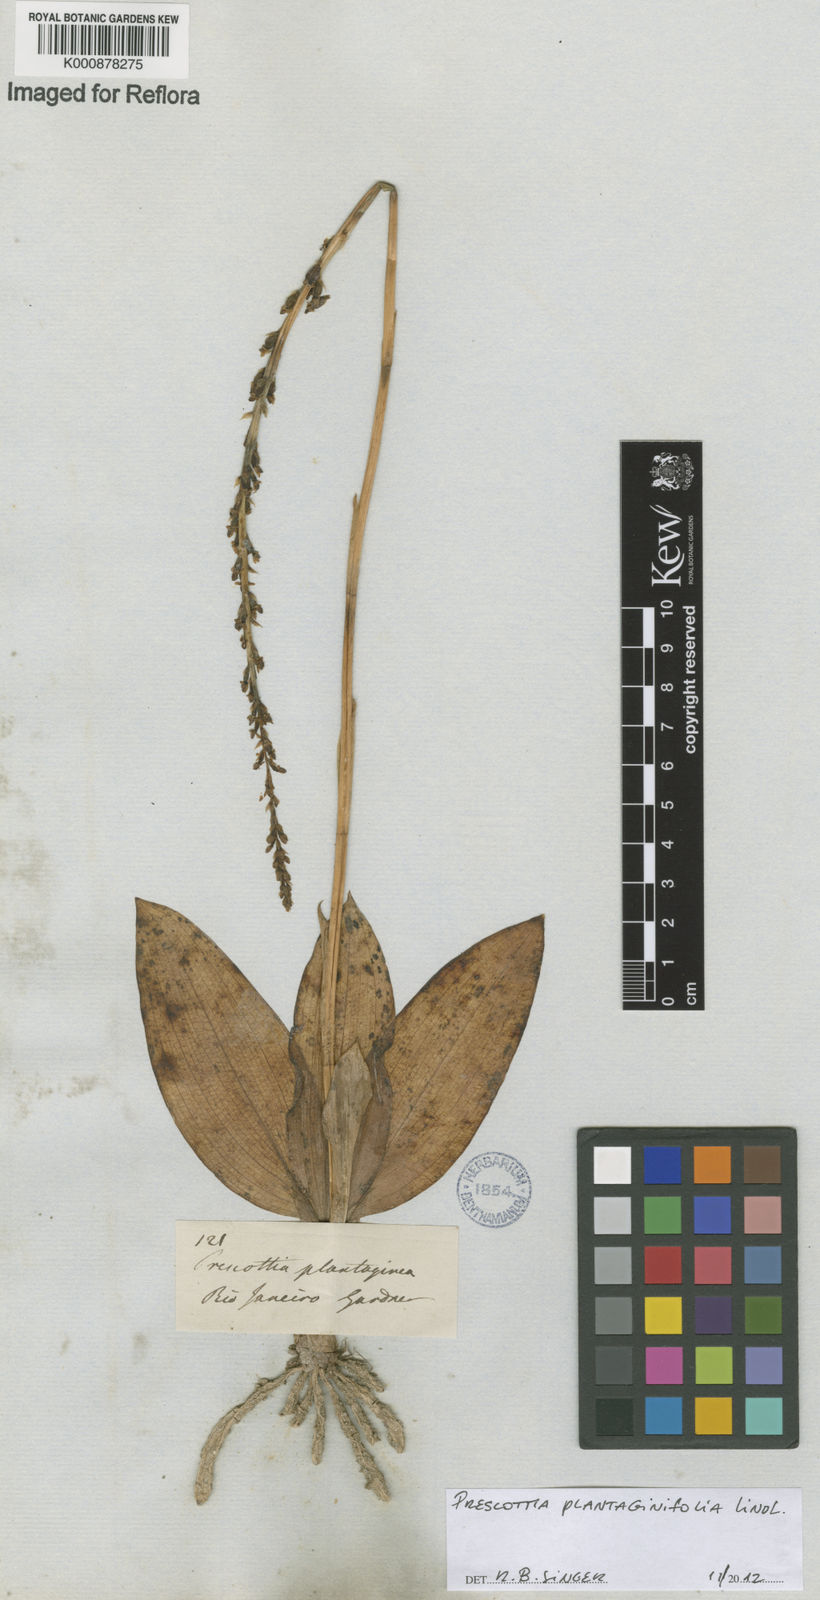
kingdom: Plantae
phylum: Tracheophyta
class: Liliopsida
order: Asparagales
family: Orchidaceae
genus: Prescottia
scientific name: Prescottia plantaginifolia
